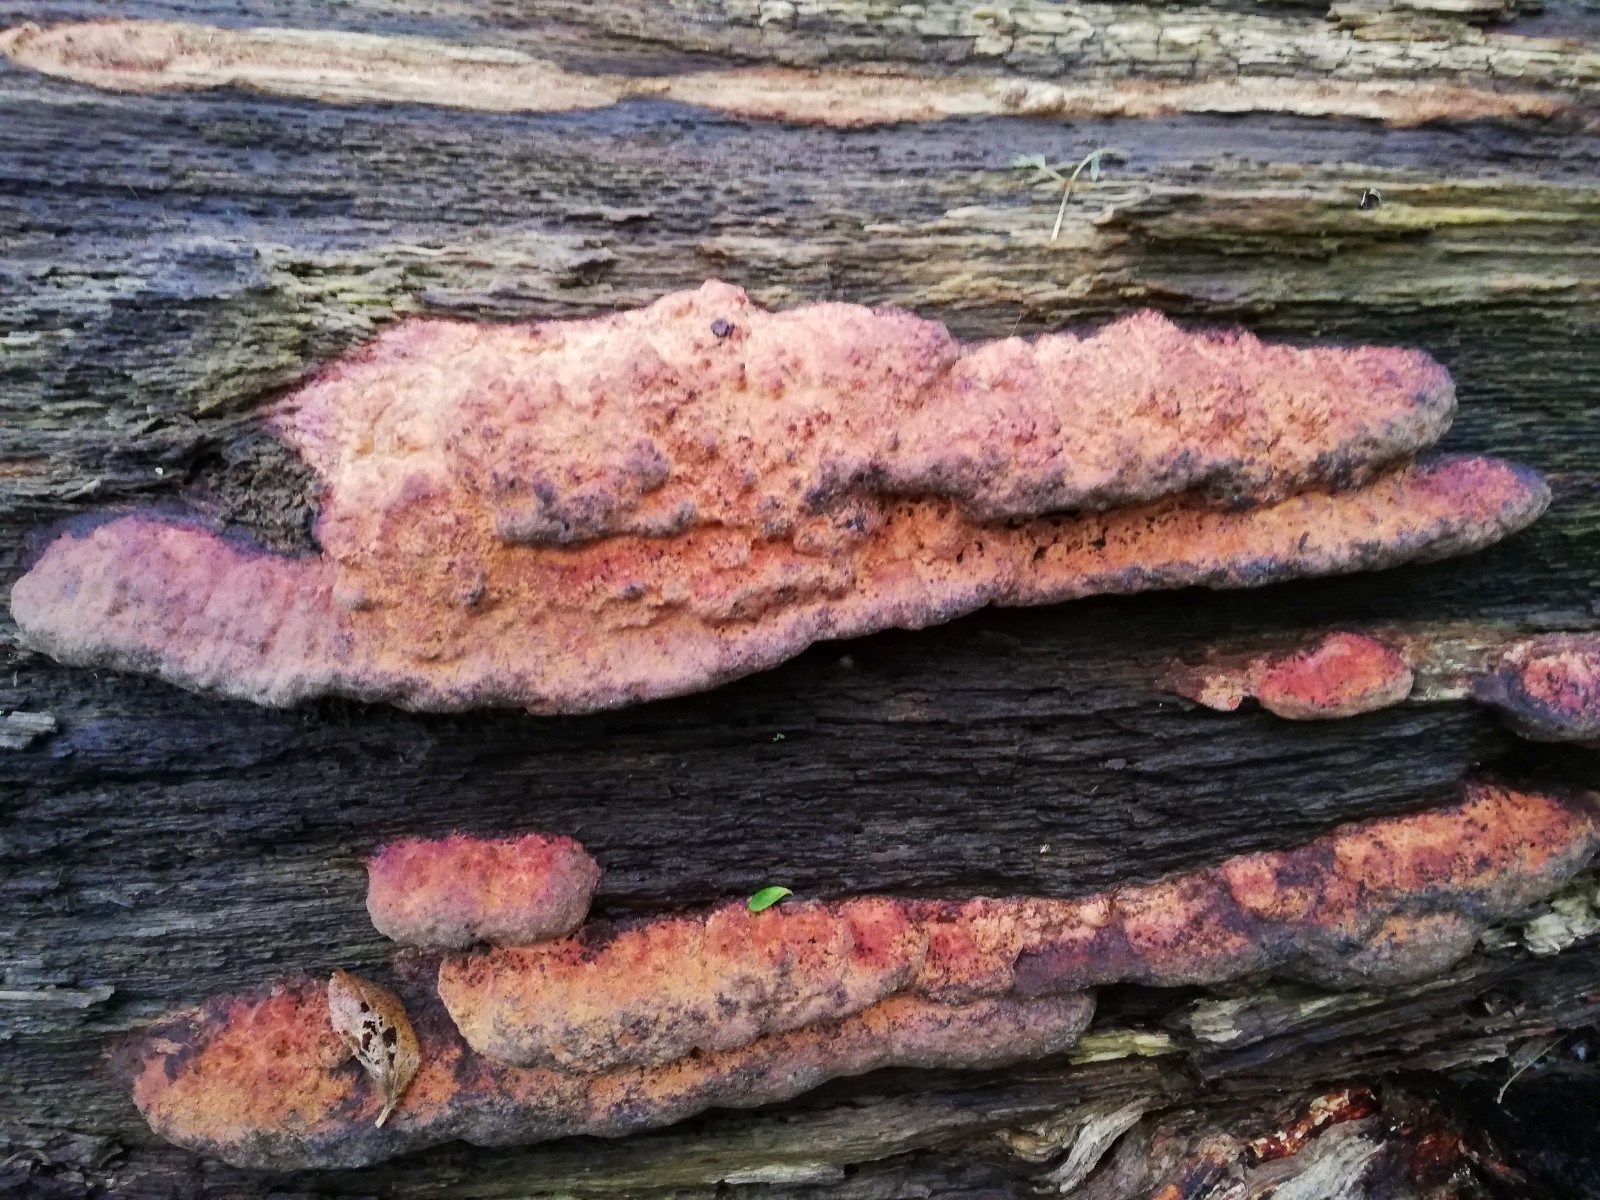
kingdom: Fungi
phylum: Basidiomycota
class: Agaricomycetes
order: Polyporales
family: Fomitopsidaceae
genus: Daedalea
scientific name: Daedalea quercina
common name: ege-labyrintsvamp
